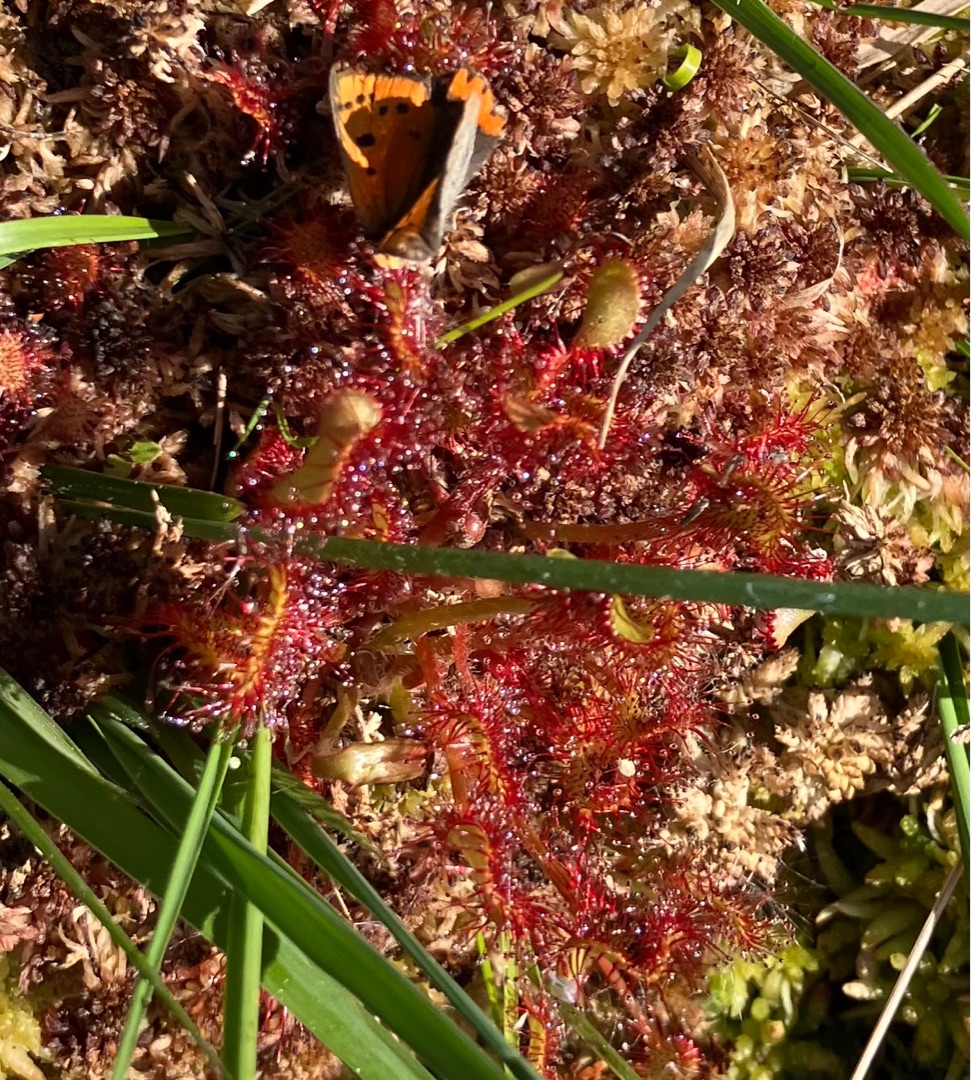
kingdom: Plantae
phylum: Tracheophyta
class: Magnoliopsida
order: Caryophyllales
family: Droseraceae
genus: Drosera
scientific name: Drosera rotundifolia
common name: Rundbladet soldug
